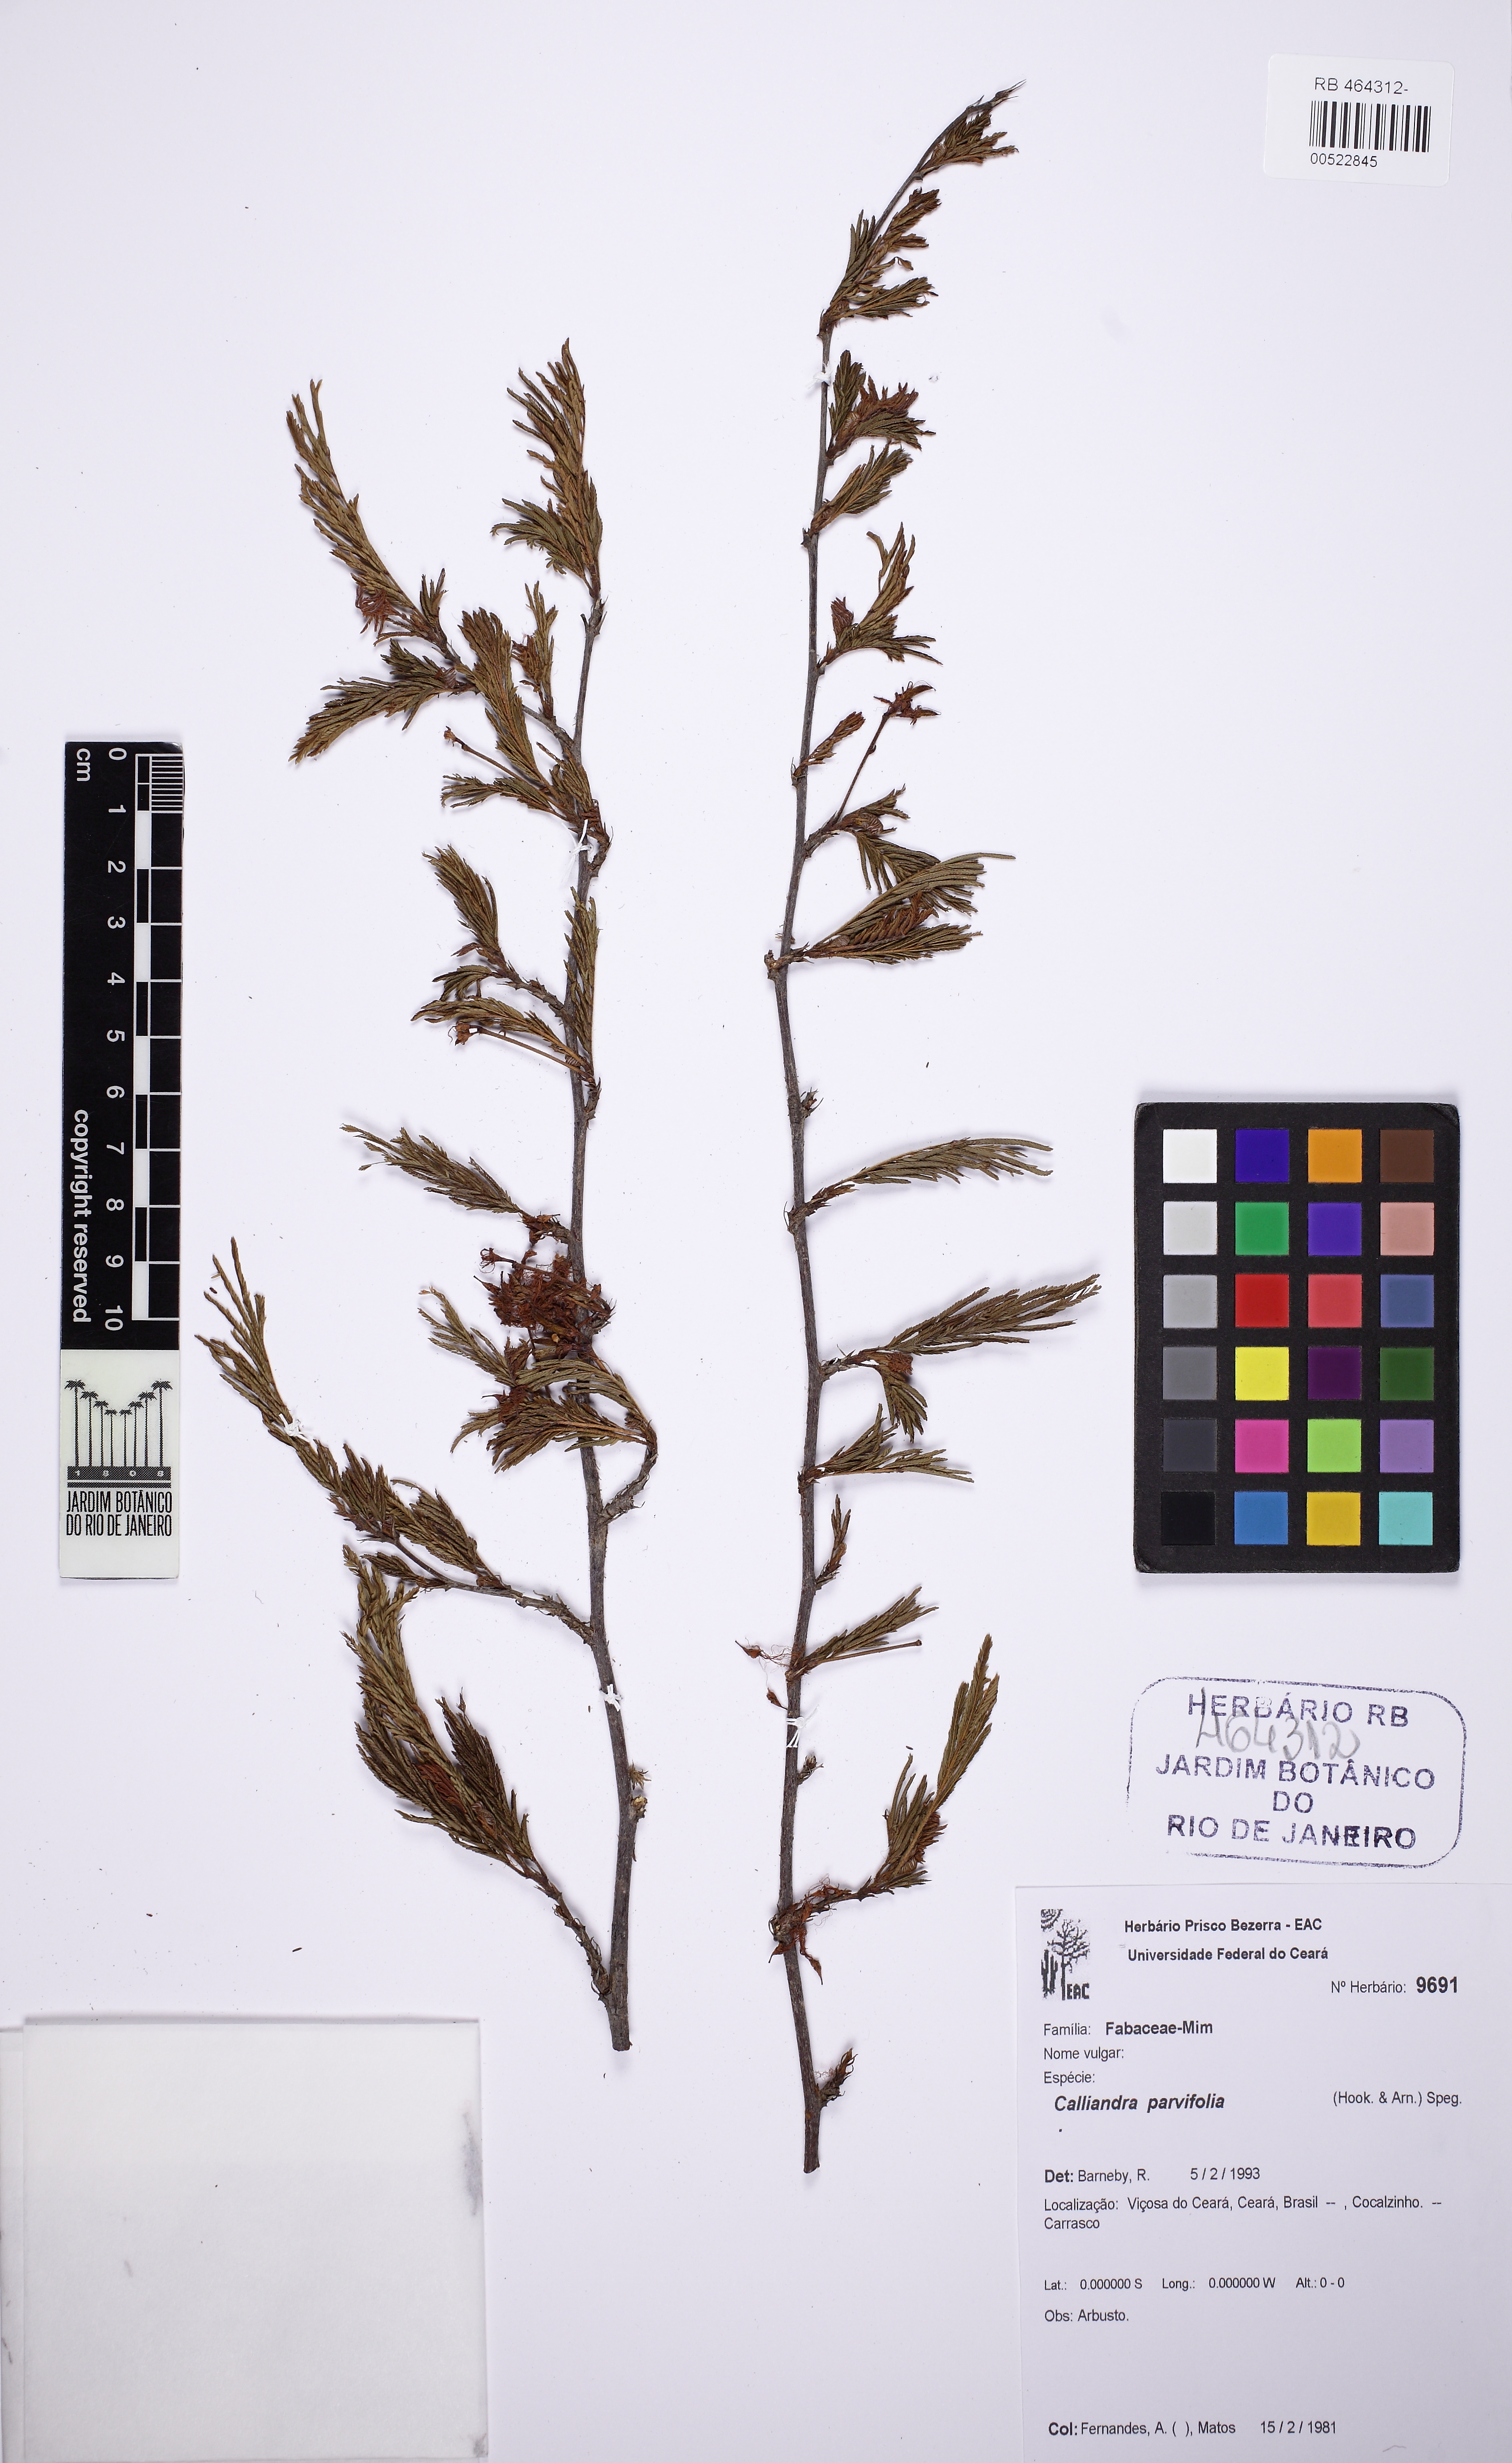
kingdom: Plantae
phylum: Tracheophyta
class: Magnoliopsida
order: Fabales
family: Fabaceae
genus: Calliandra
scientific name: Calliandra parvifolia
